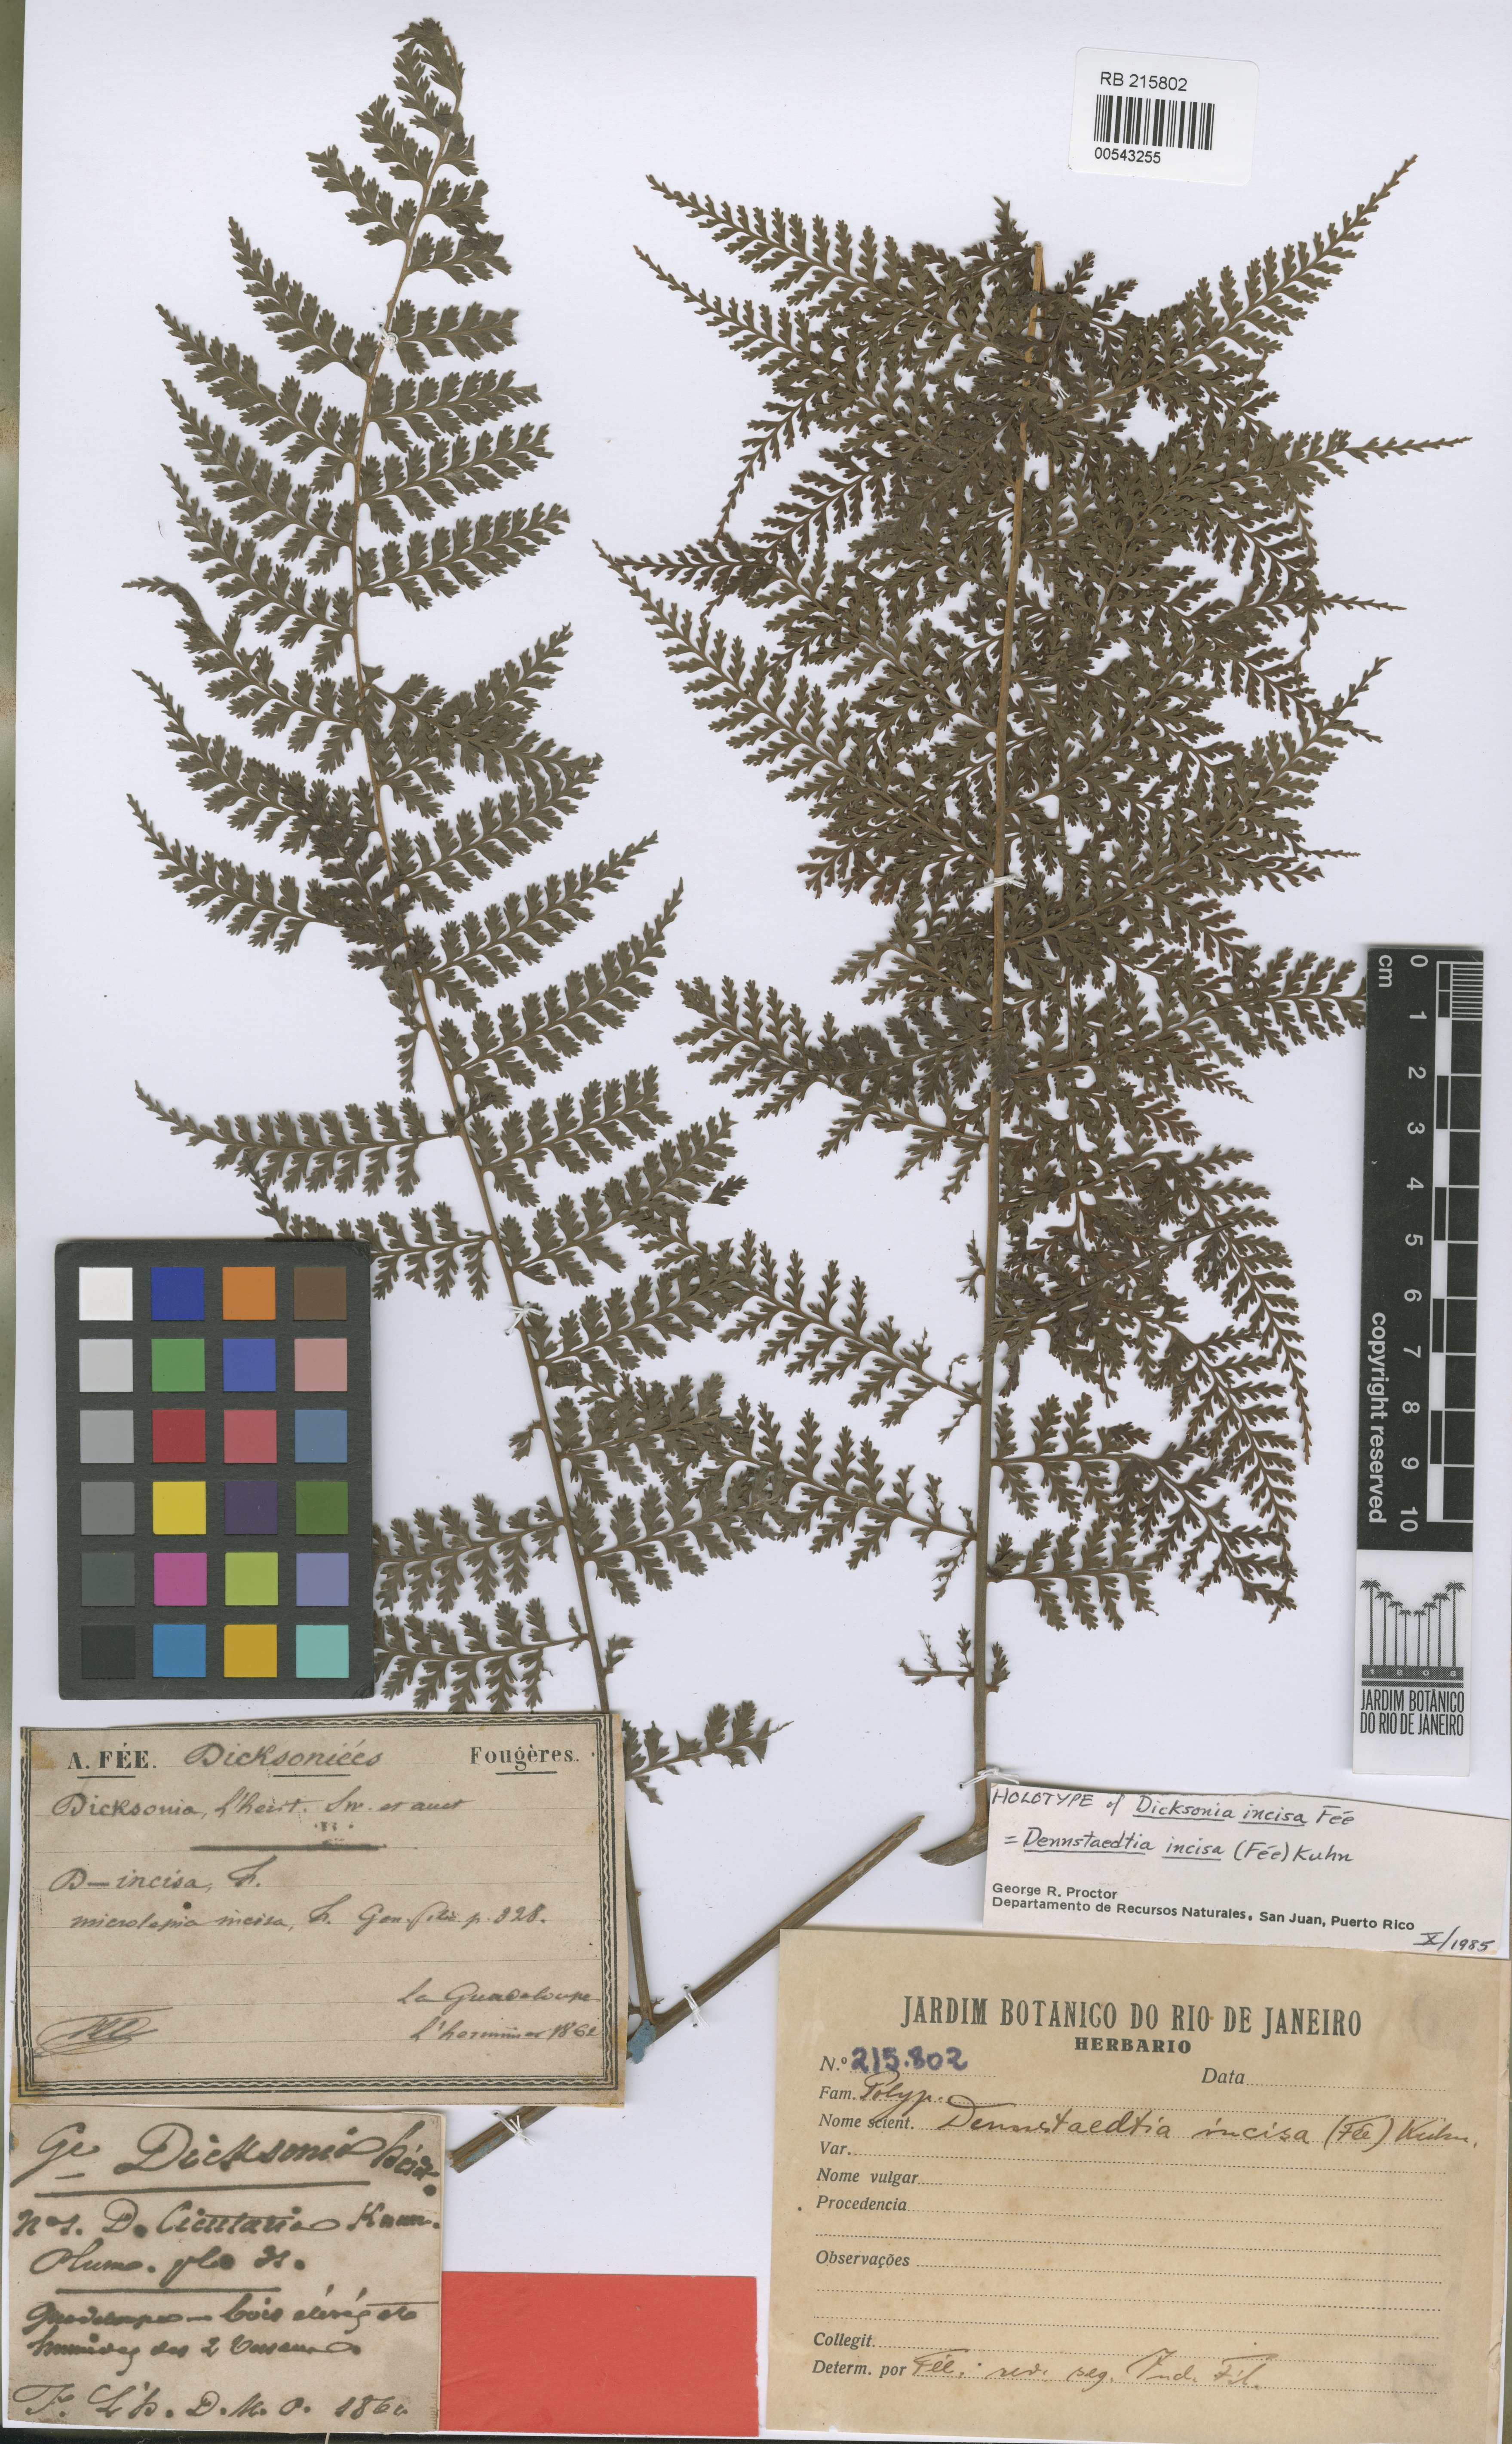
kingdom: Plantae
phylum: Tracheophyta
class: Polypodiopsida
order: Polypodiales
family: Dennstaedtiaceae
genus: Dennstaedtia
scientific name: Dennstaedtia obtusifolia
